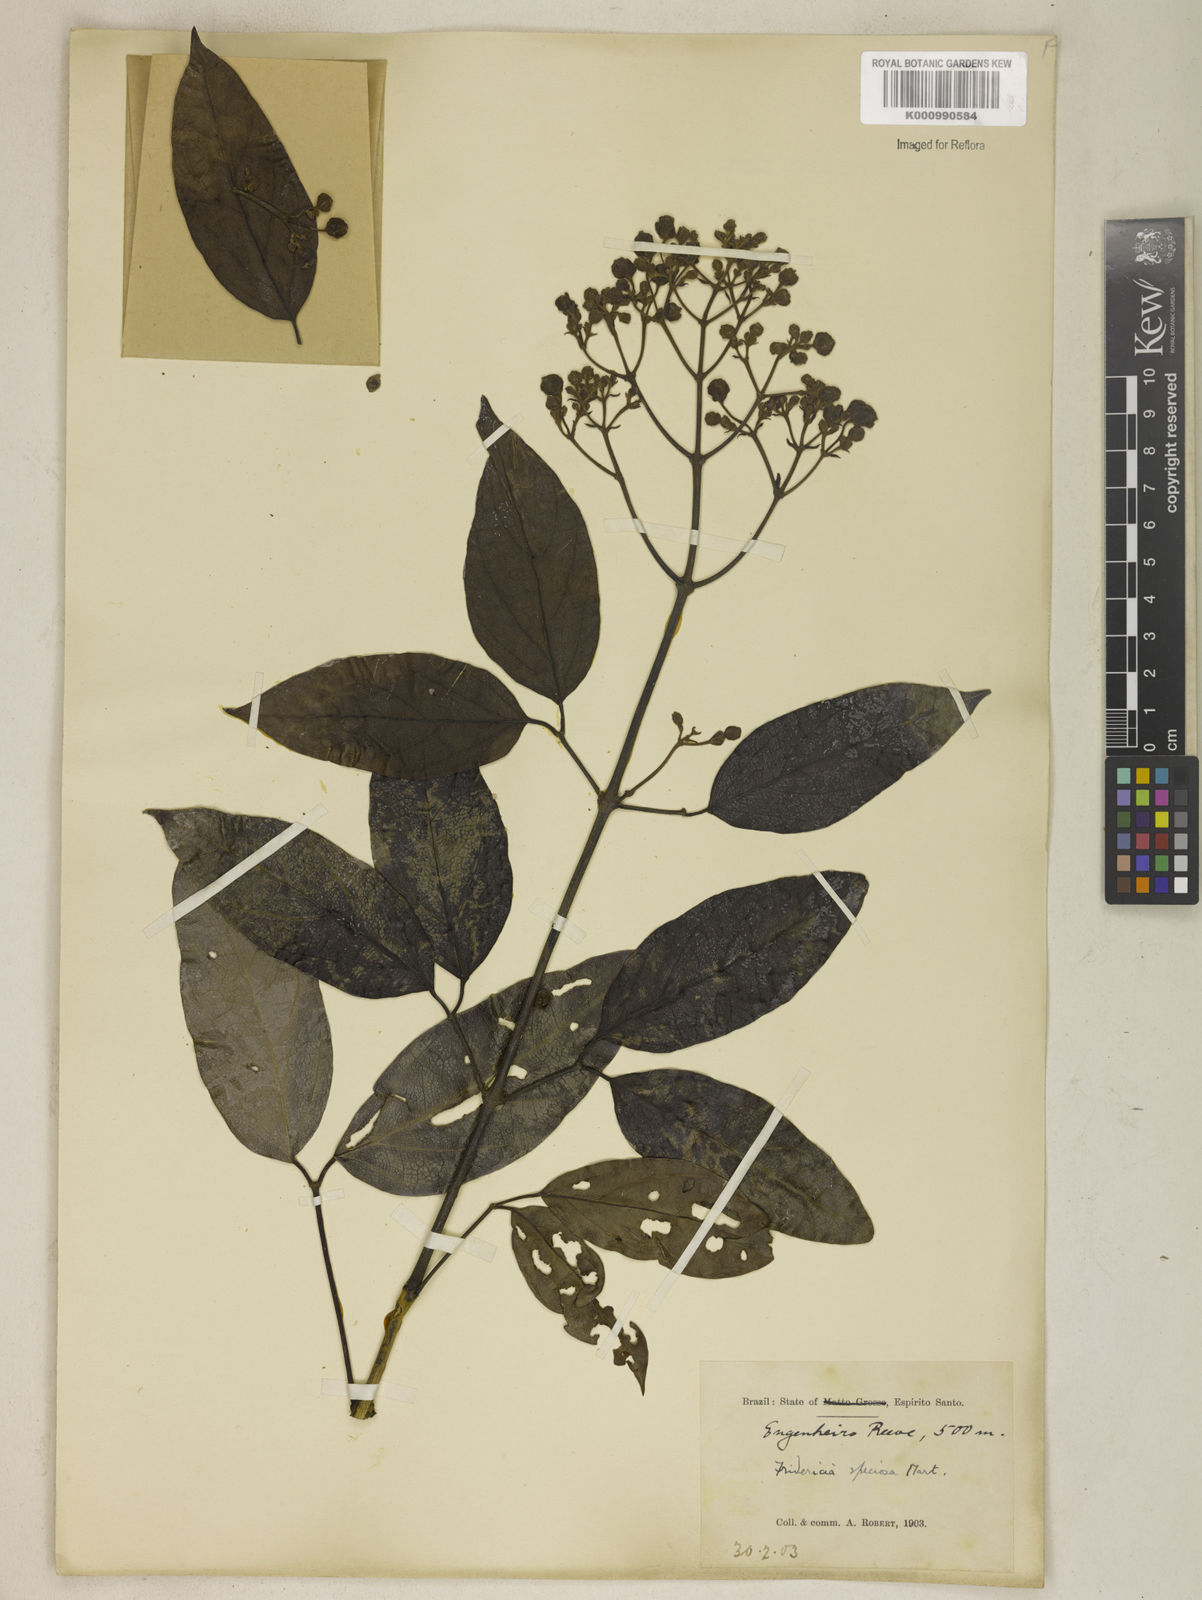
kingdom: Plantae
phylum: Tracheophyta
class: Magnoliopsida
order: Lamiales
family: Bignoniaceae
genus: Fridericia
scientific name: Fridericia speciosa
